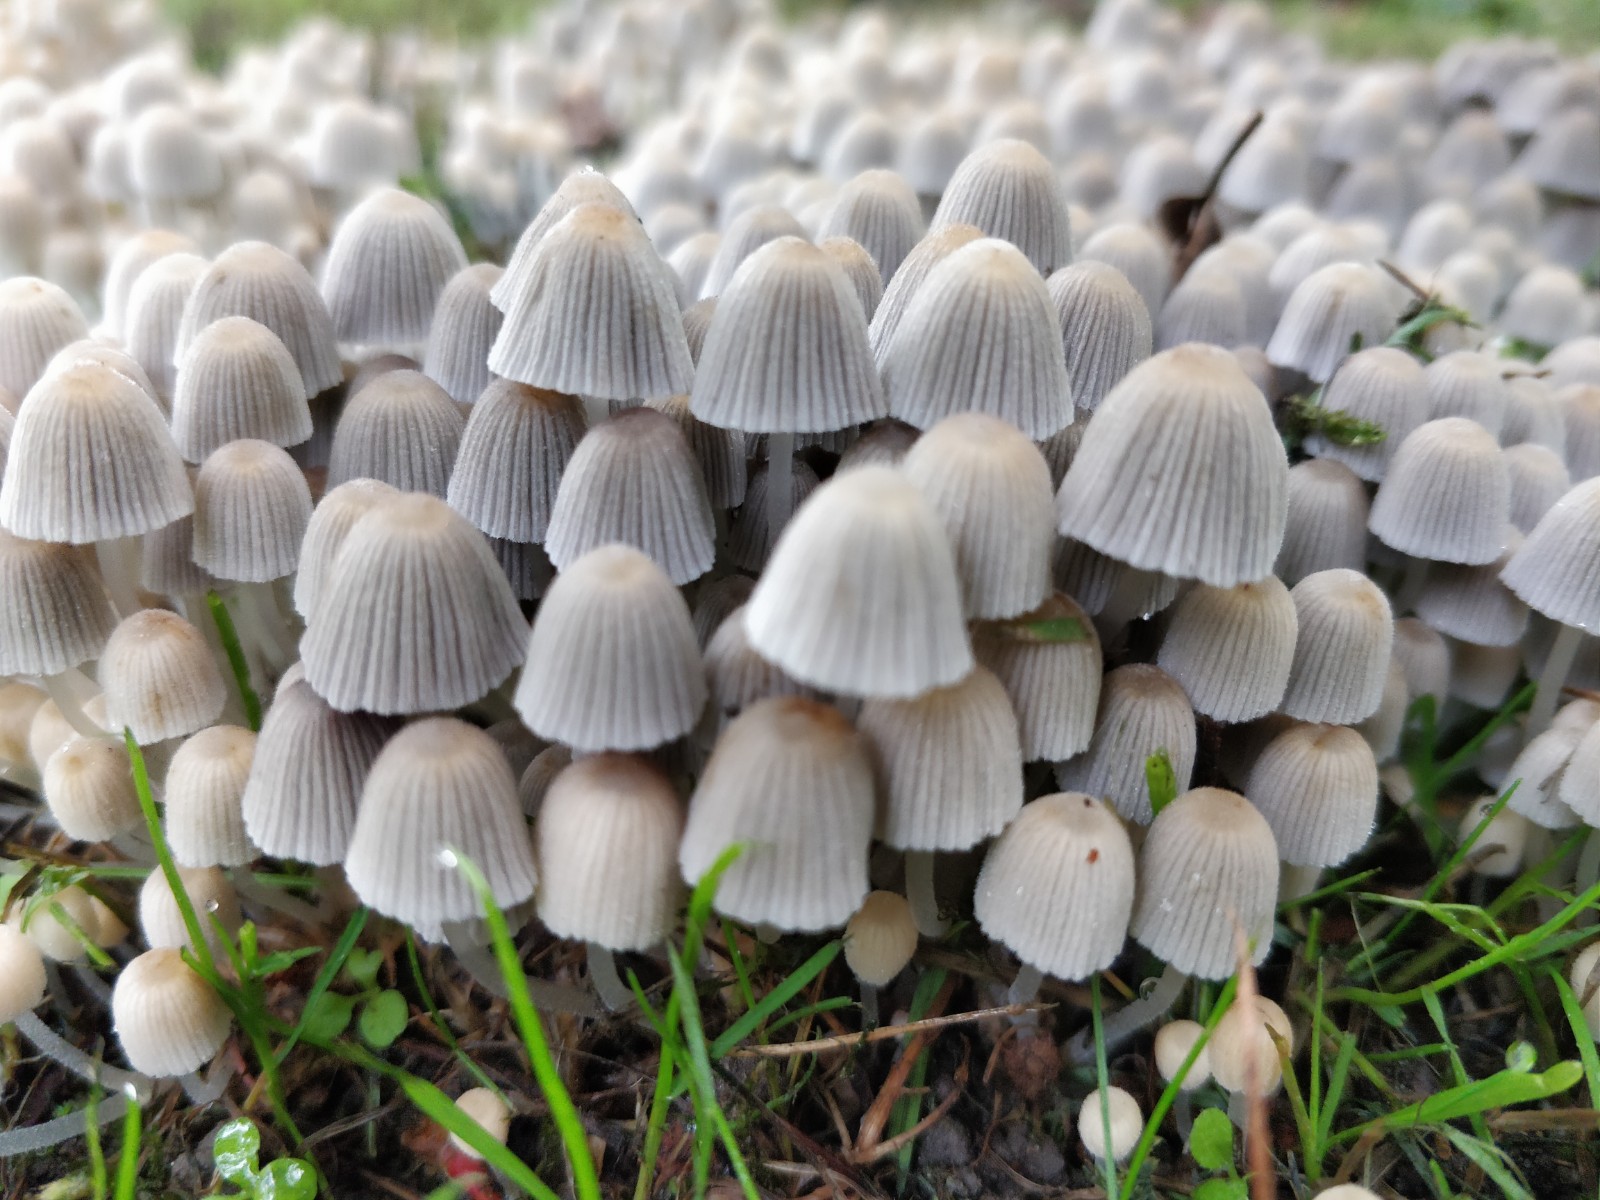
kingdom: Fungi
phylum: Basidiomycota
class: Agaricomycetes
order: Agaricales
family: Psathyrellaceae
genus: Coprinellus
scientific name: Coprinellus disseminatus
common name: bredsået blækhat
